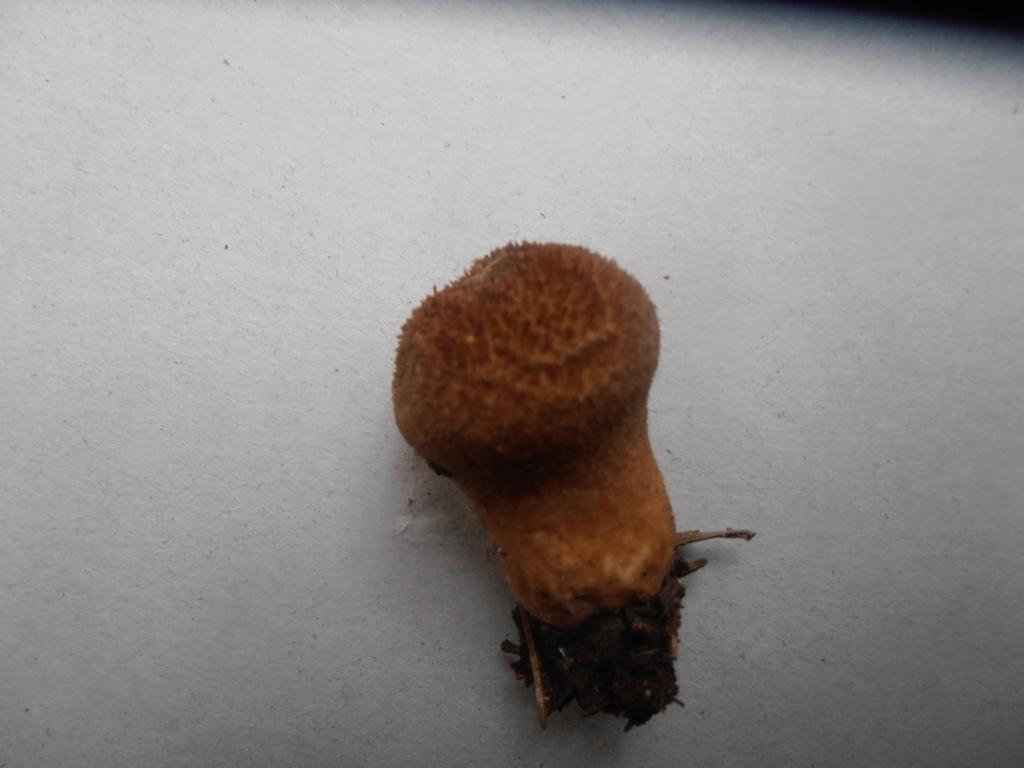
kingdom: Fungi
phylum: Basidiomycota
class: Agaricomycetes
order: Agaricales
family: Lycoperdaceae
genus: Lycoperdon
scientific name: Lycoperdon nigrescens
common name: sortagtig støvbold
